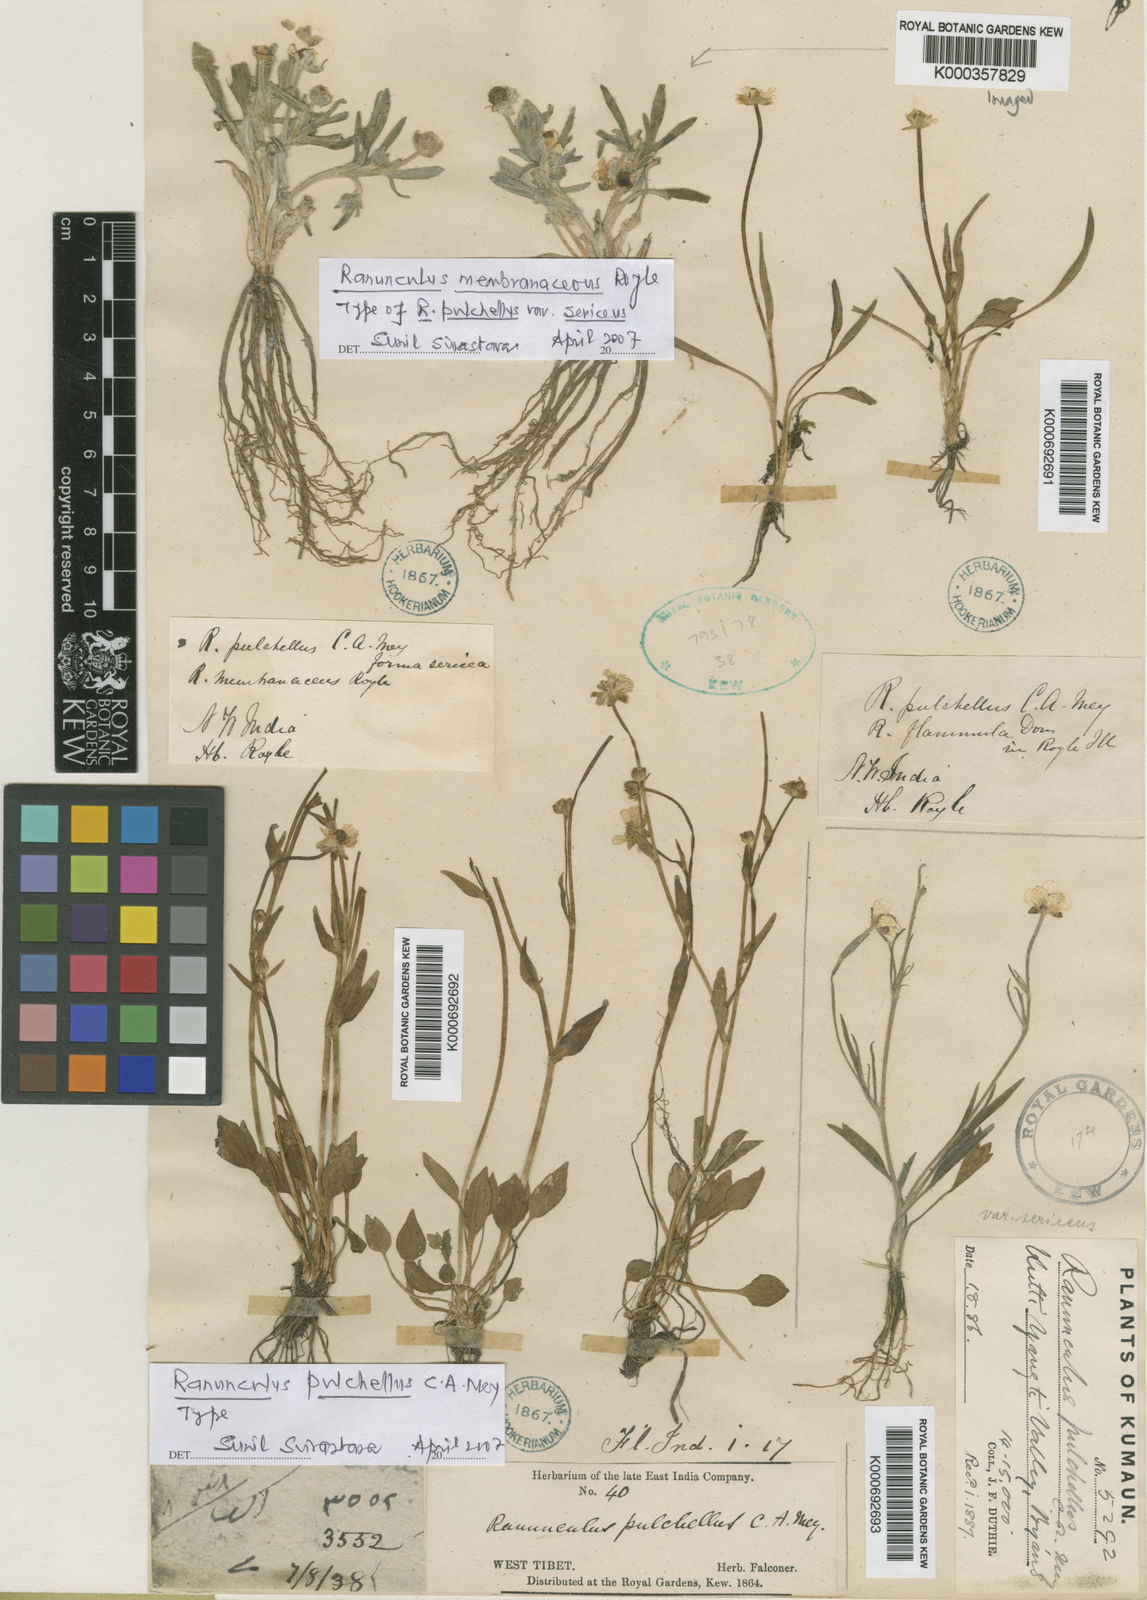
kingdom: Plantae
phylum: Tracheophyta
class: Magnoliopsida
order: Ranunculales
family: Ranunculaceae
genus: Ranunculus
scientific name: Ranunculus pulchellus
